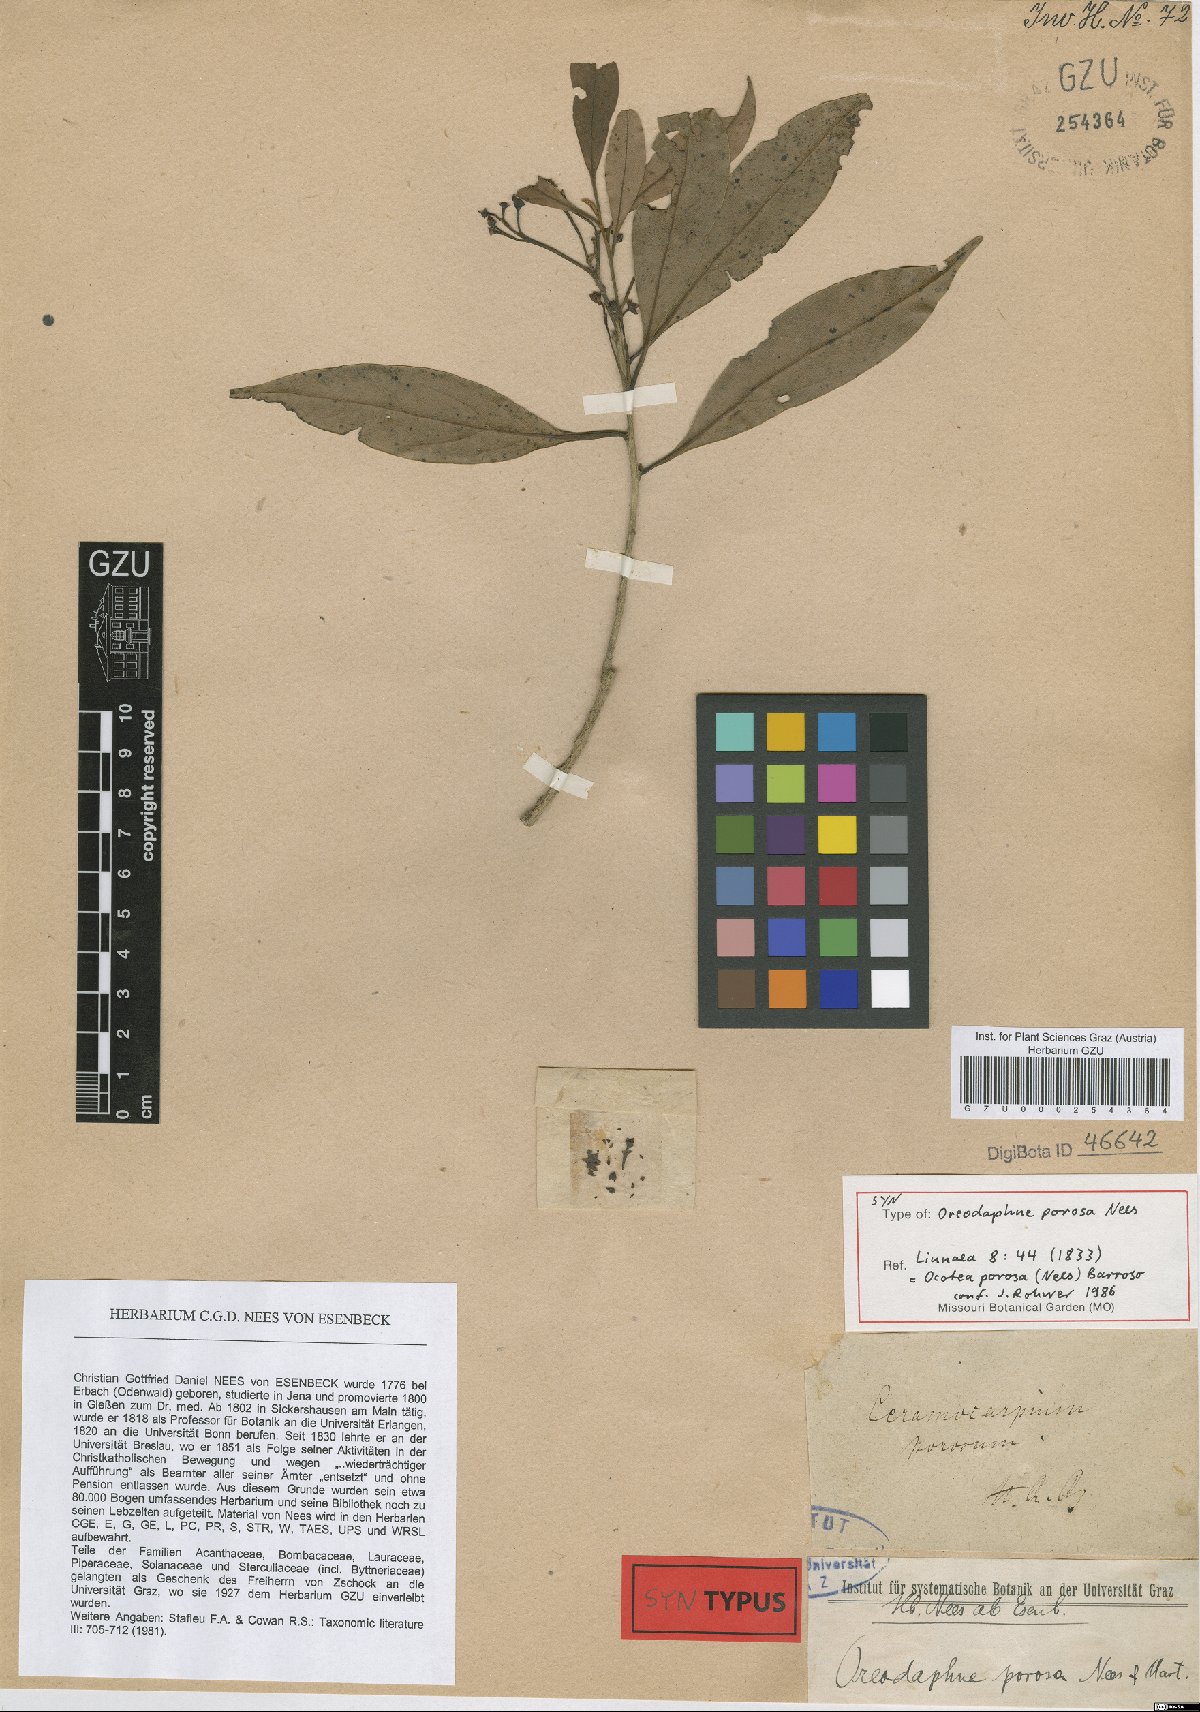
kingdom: Plantae
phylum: Tracheophyta
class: Magnoliopsida
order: Laurales
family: Lauraceae
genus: Ocotea
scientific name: Ocotea porosa
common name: Brazilian-walnut
